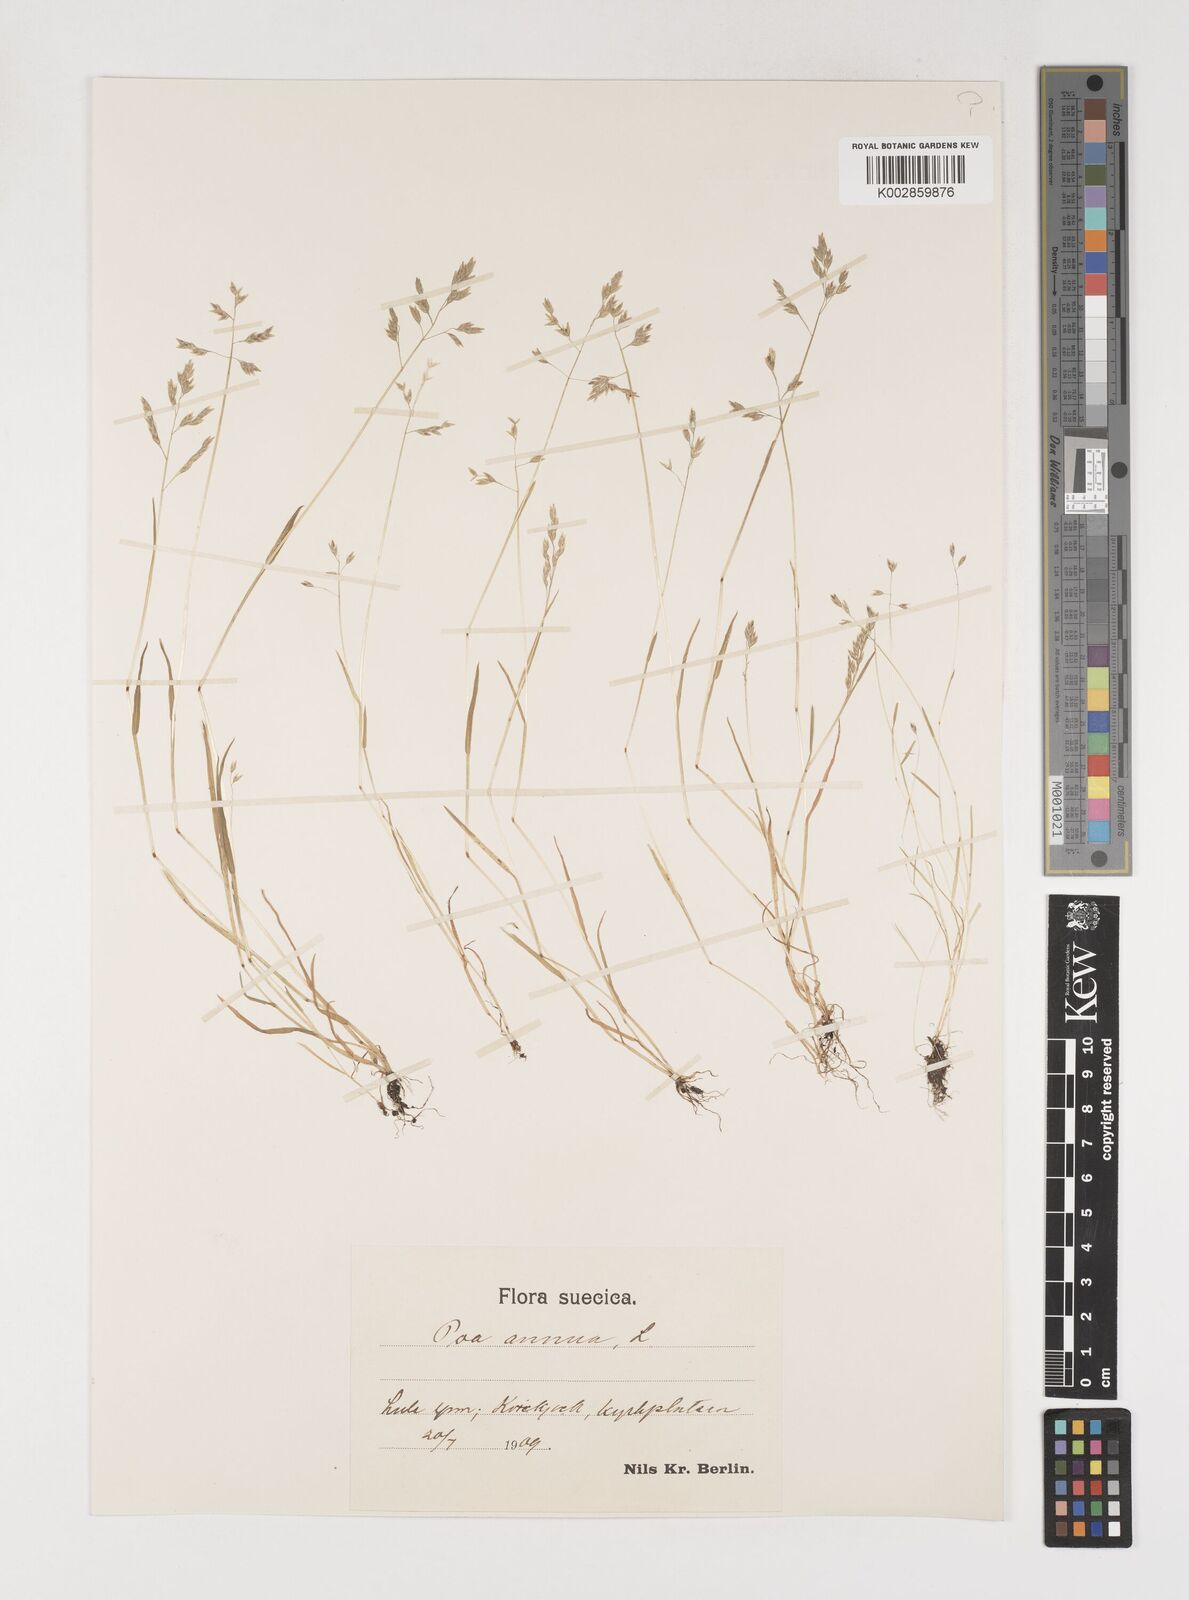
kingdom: Plantae
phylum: Tracheophyta
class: Liliopsida
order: Poales
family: Poaceae
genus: Poa
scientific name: Poa annua
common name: Annual bluegrass
